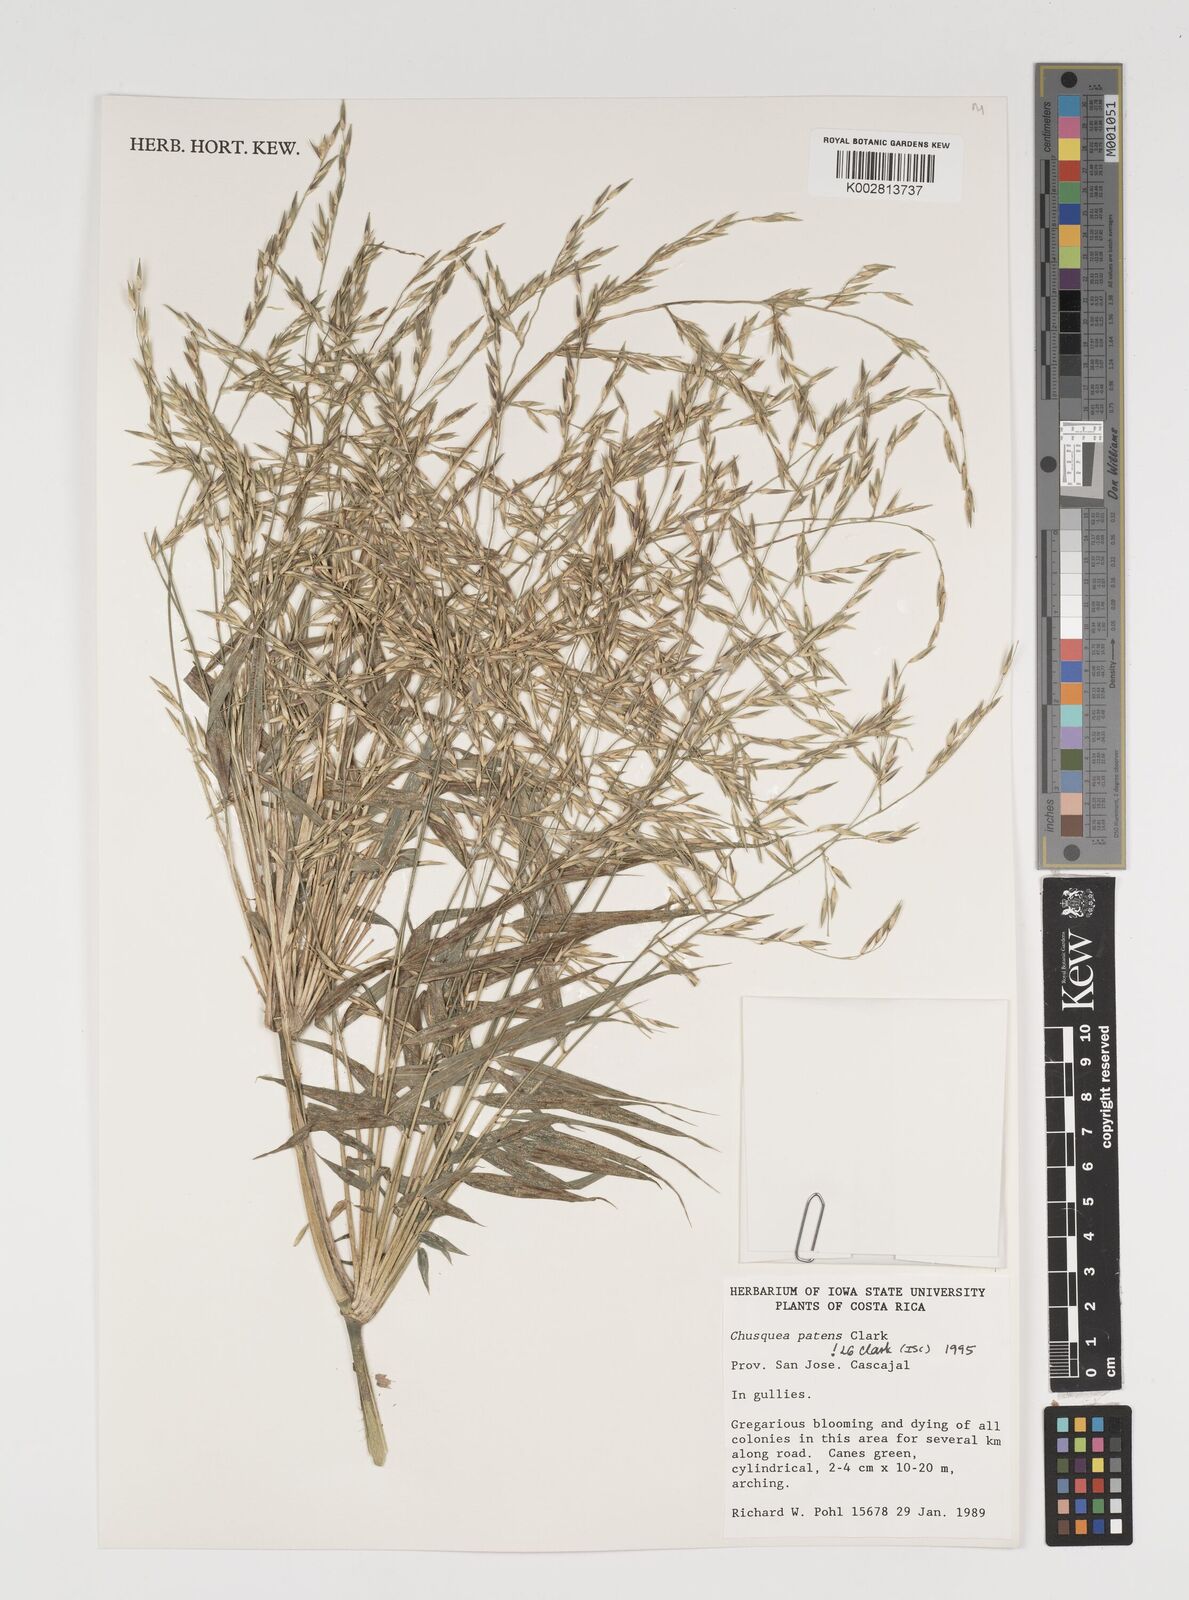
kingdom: Plantae
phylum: Tracheophyta
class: Liliopsida
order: Poales
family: Poaceae
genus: Chusquea
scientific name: Chusquea patens
